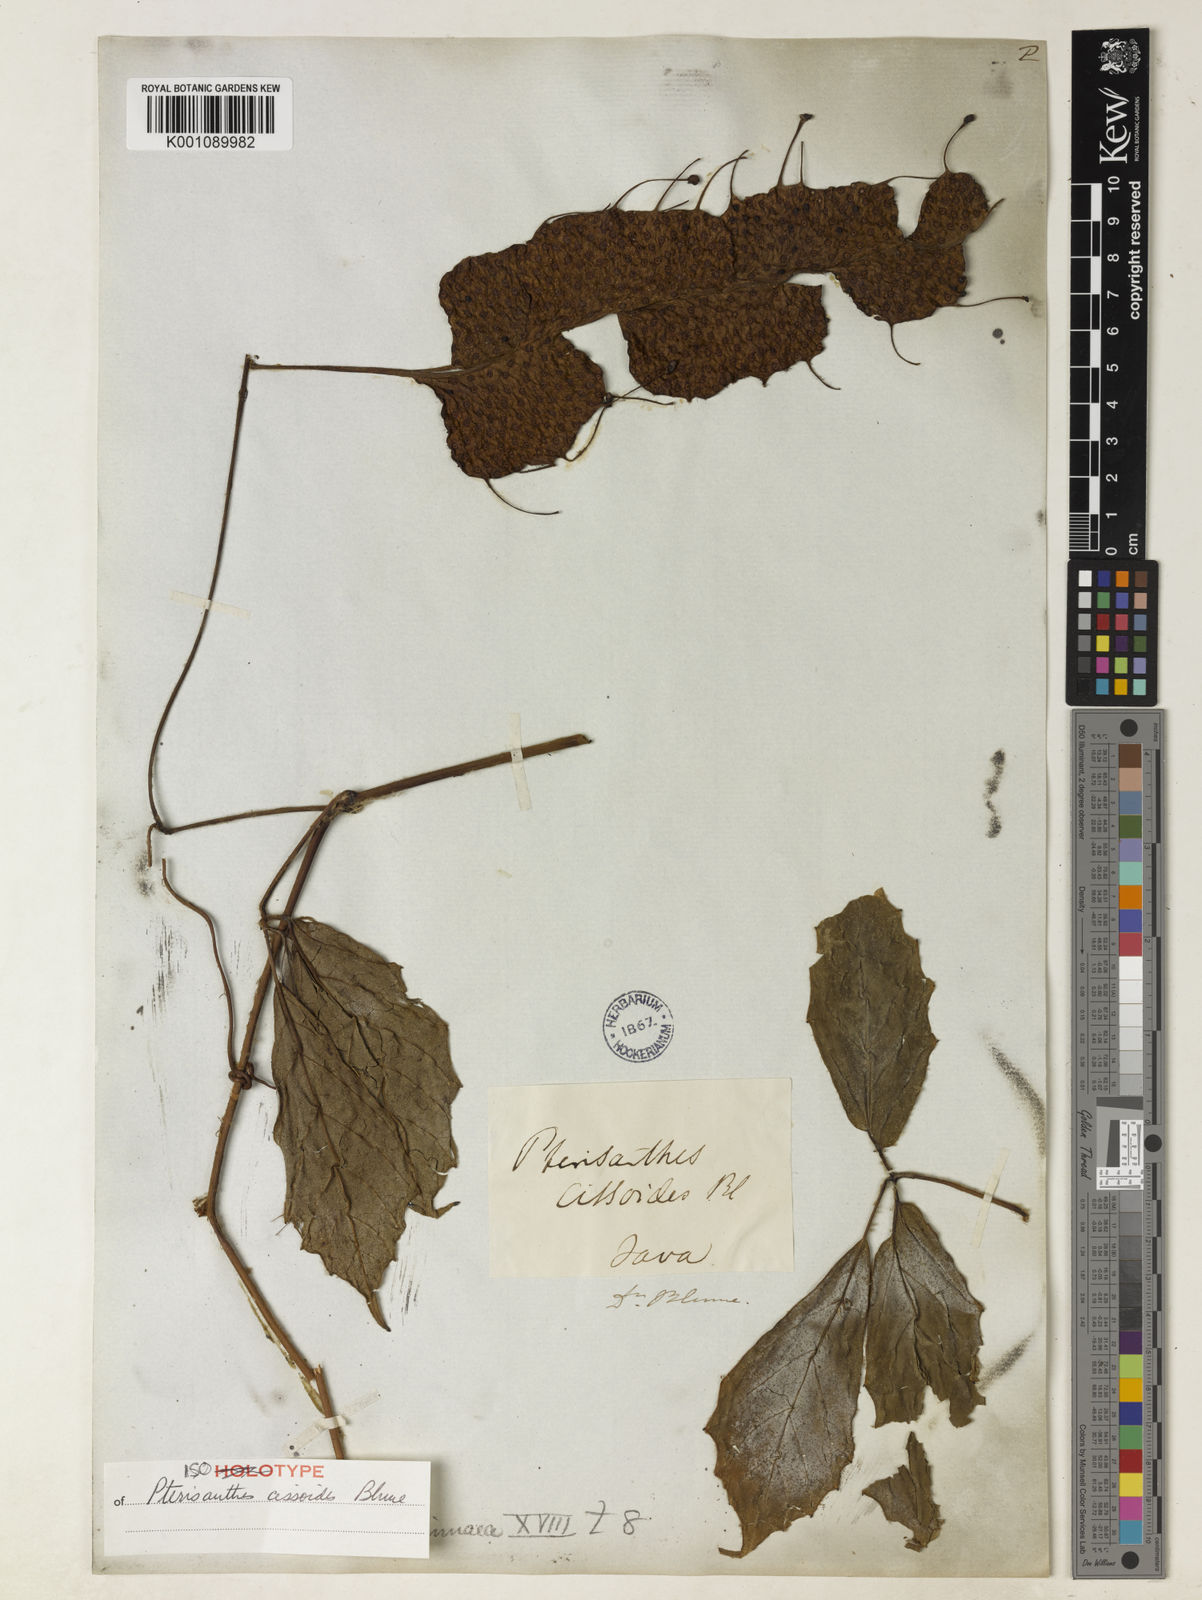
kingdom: Plantae
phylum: Tracheophyta
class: Magnoliopsida
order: Vitales
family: Vitaceae
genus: Pterisanthes
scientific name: Pterisanthes cissioides
